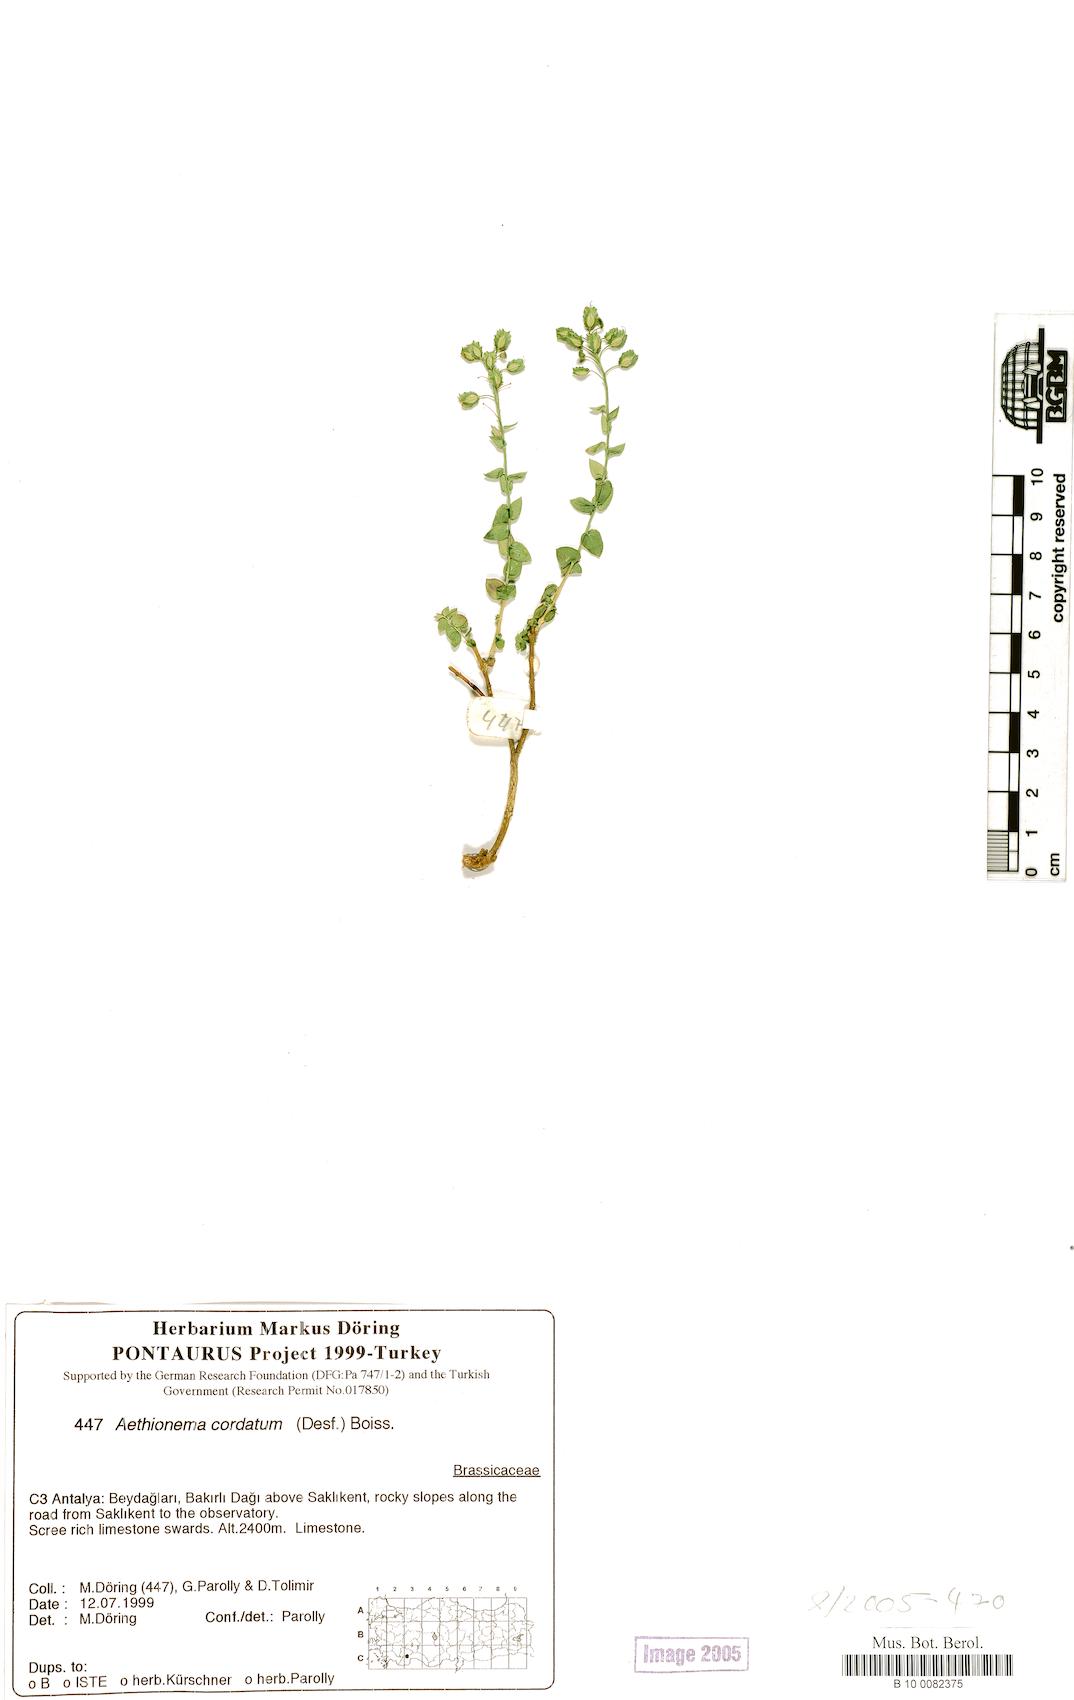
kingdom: Plantae
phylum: Tracheophyta
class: Magnoliopsida
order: Brassicales
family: Brassicaceae
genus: Aethionema
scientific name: Aethionema cordatum
